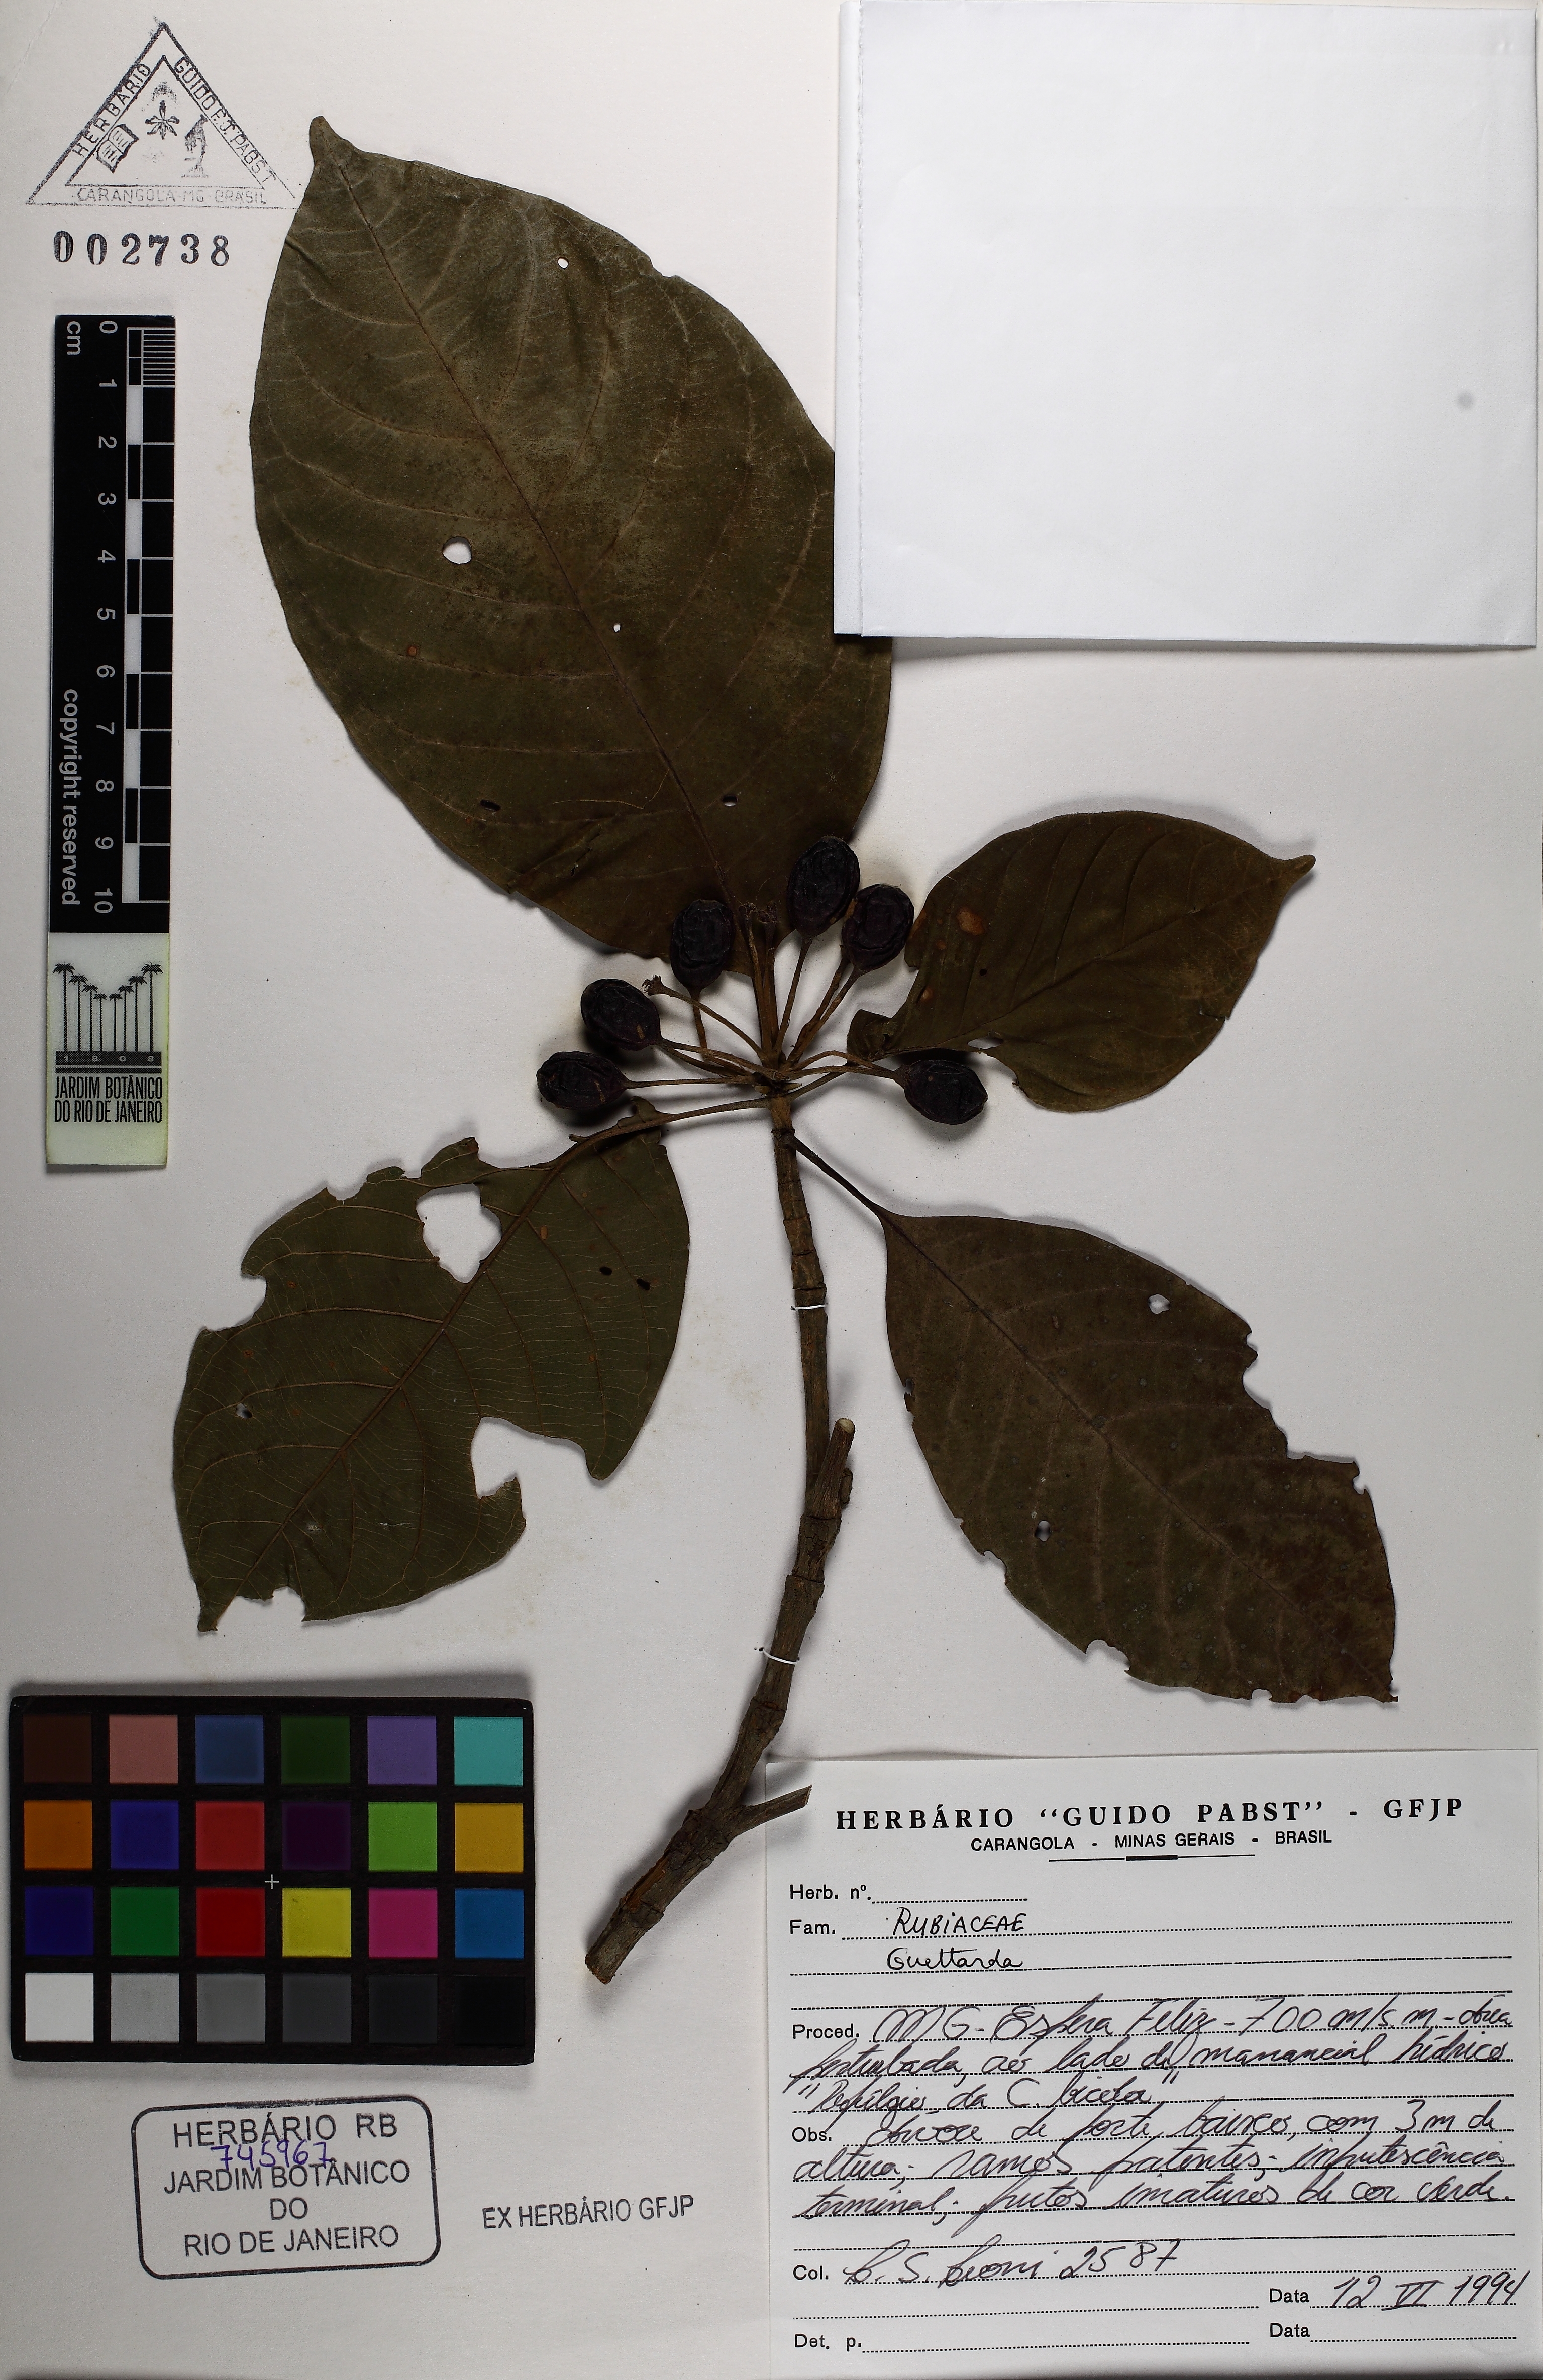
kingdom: Plantae
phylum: Tracheophyta
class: Magnoliopsida
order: Gentianales
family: Rubiaceae
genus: Amaioua
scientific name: Amaioua intermedia
